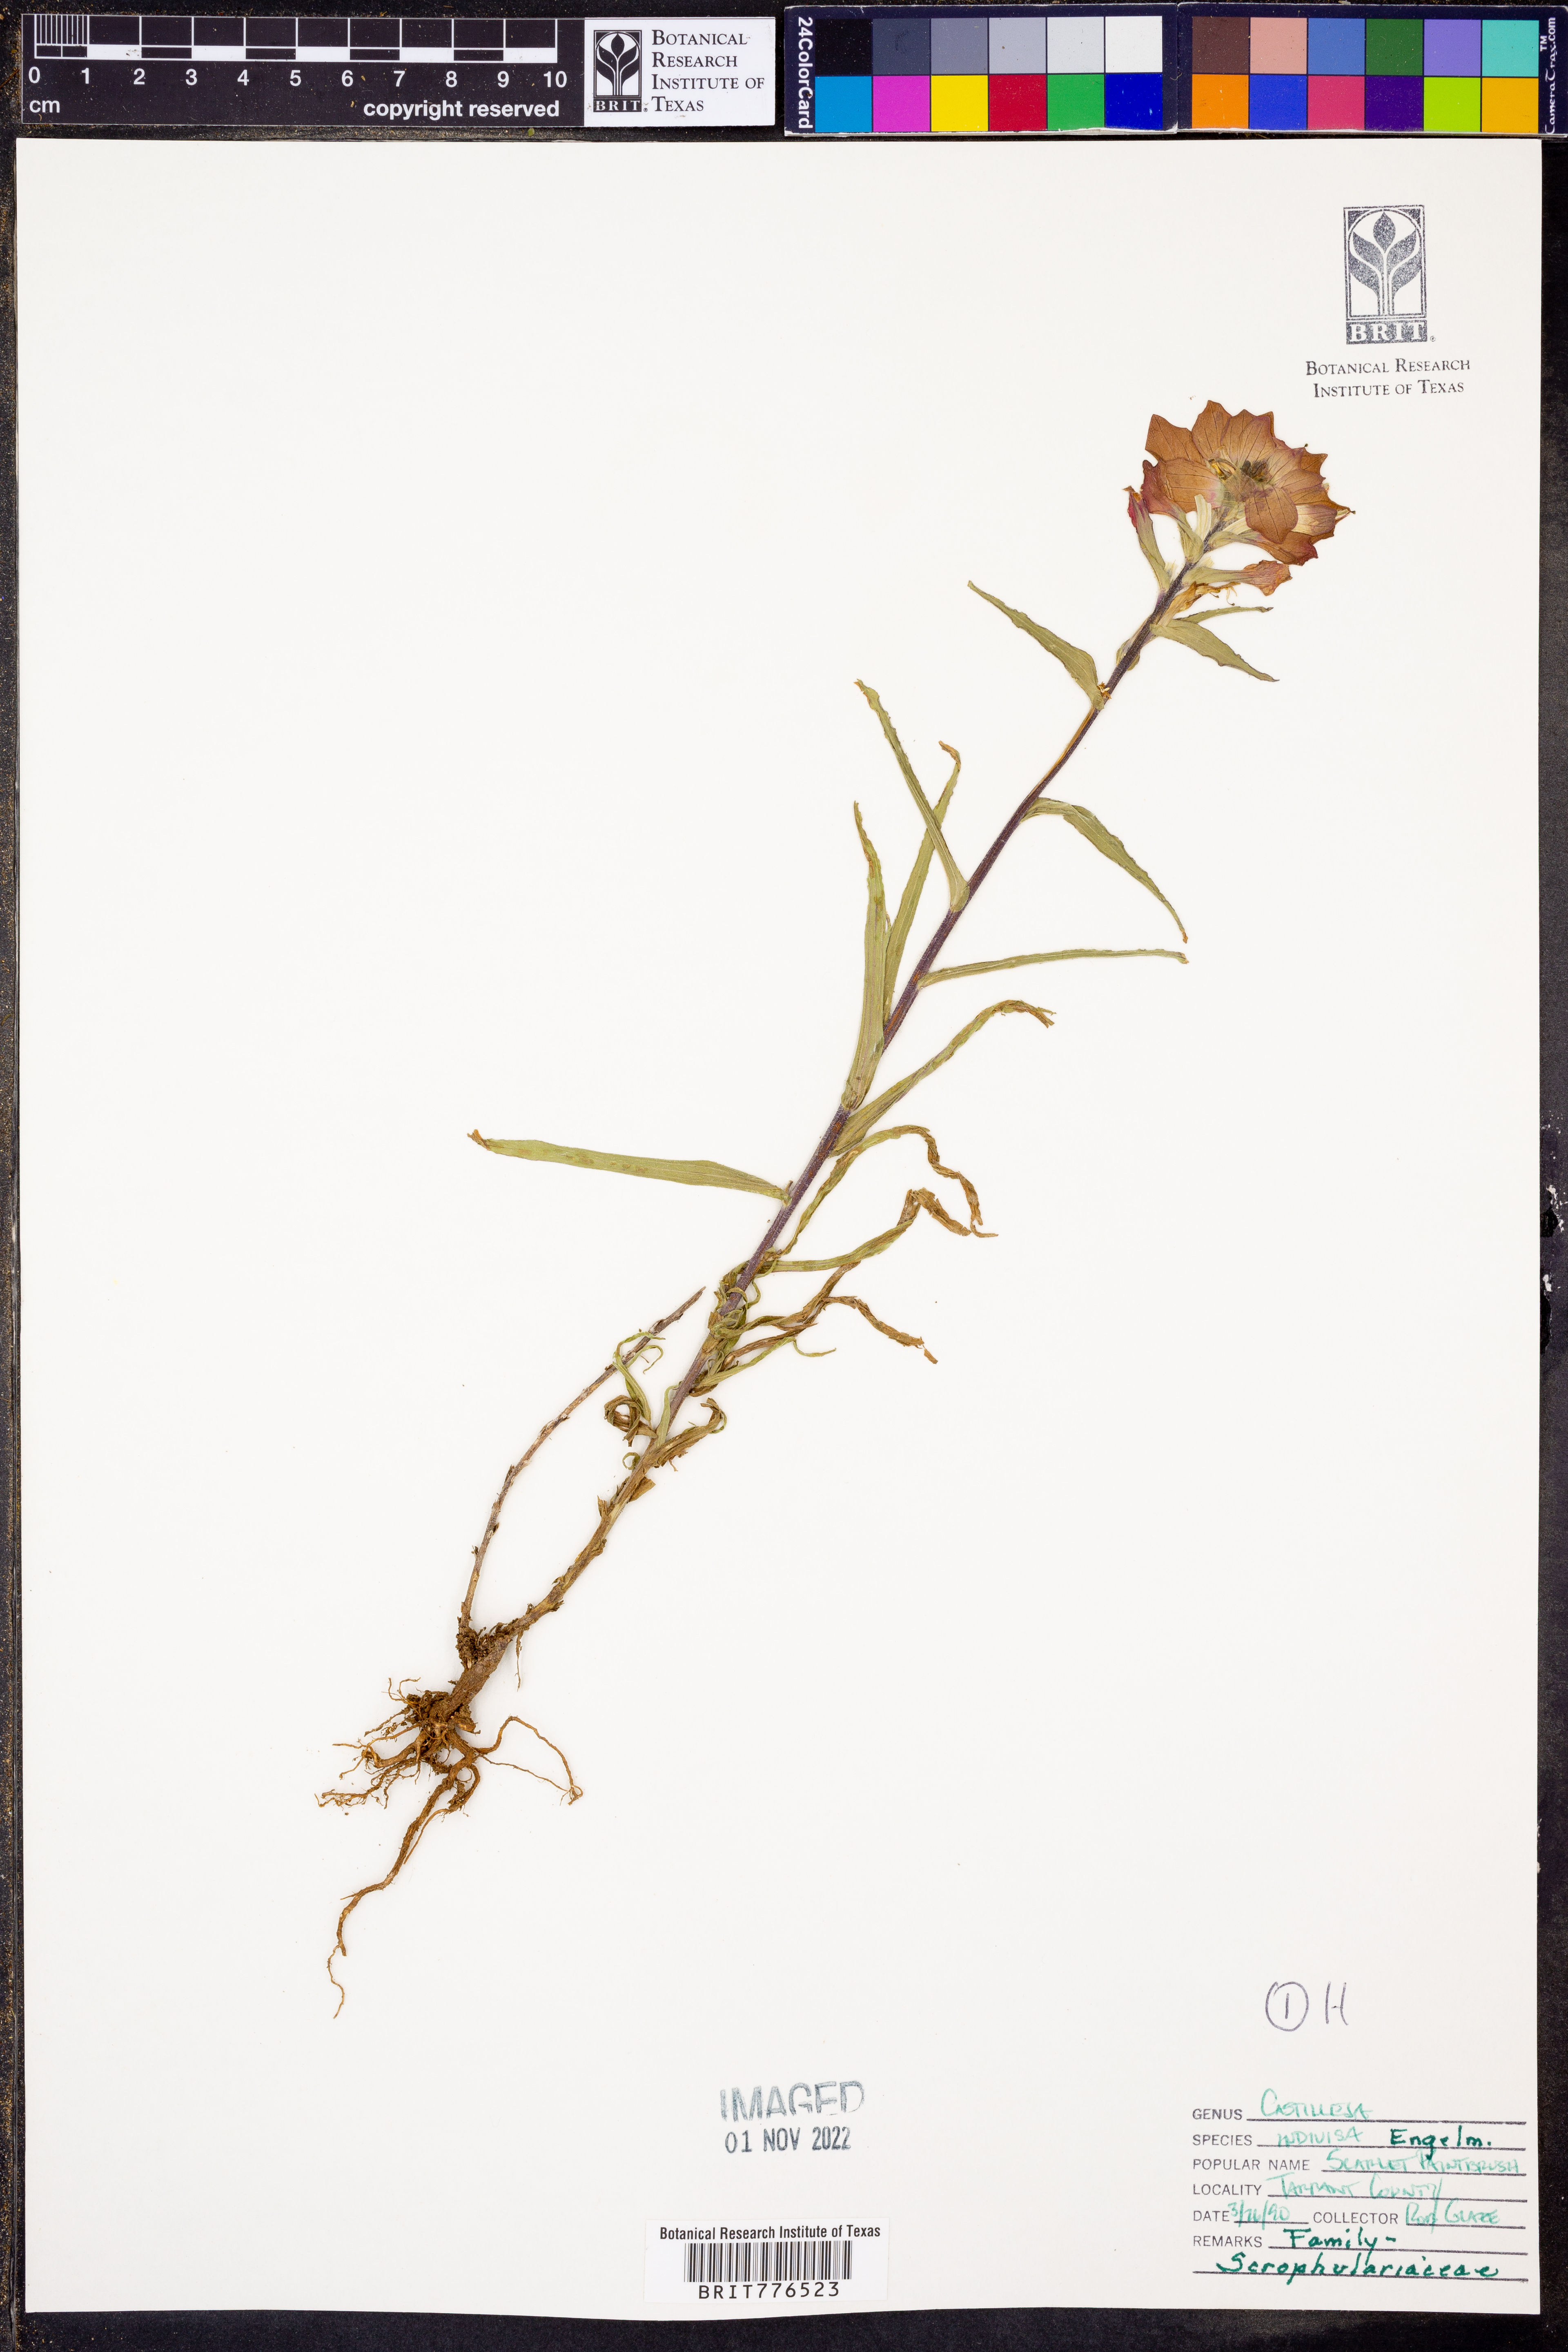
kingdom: Plantae
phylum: Tracheophyta
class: Magnoliopsida
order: Lamiales
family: Orobanchaceae
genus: Castilleja
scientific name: Castilleja indivisa
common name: Texas paintbrush
